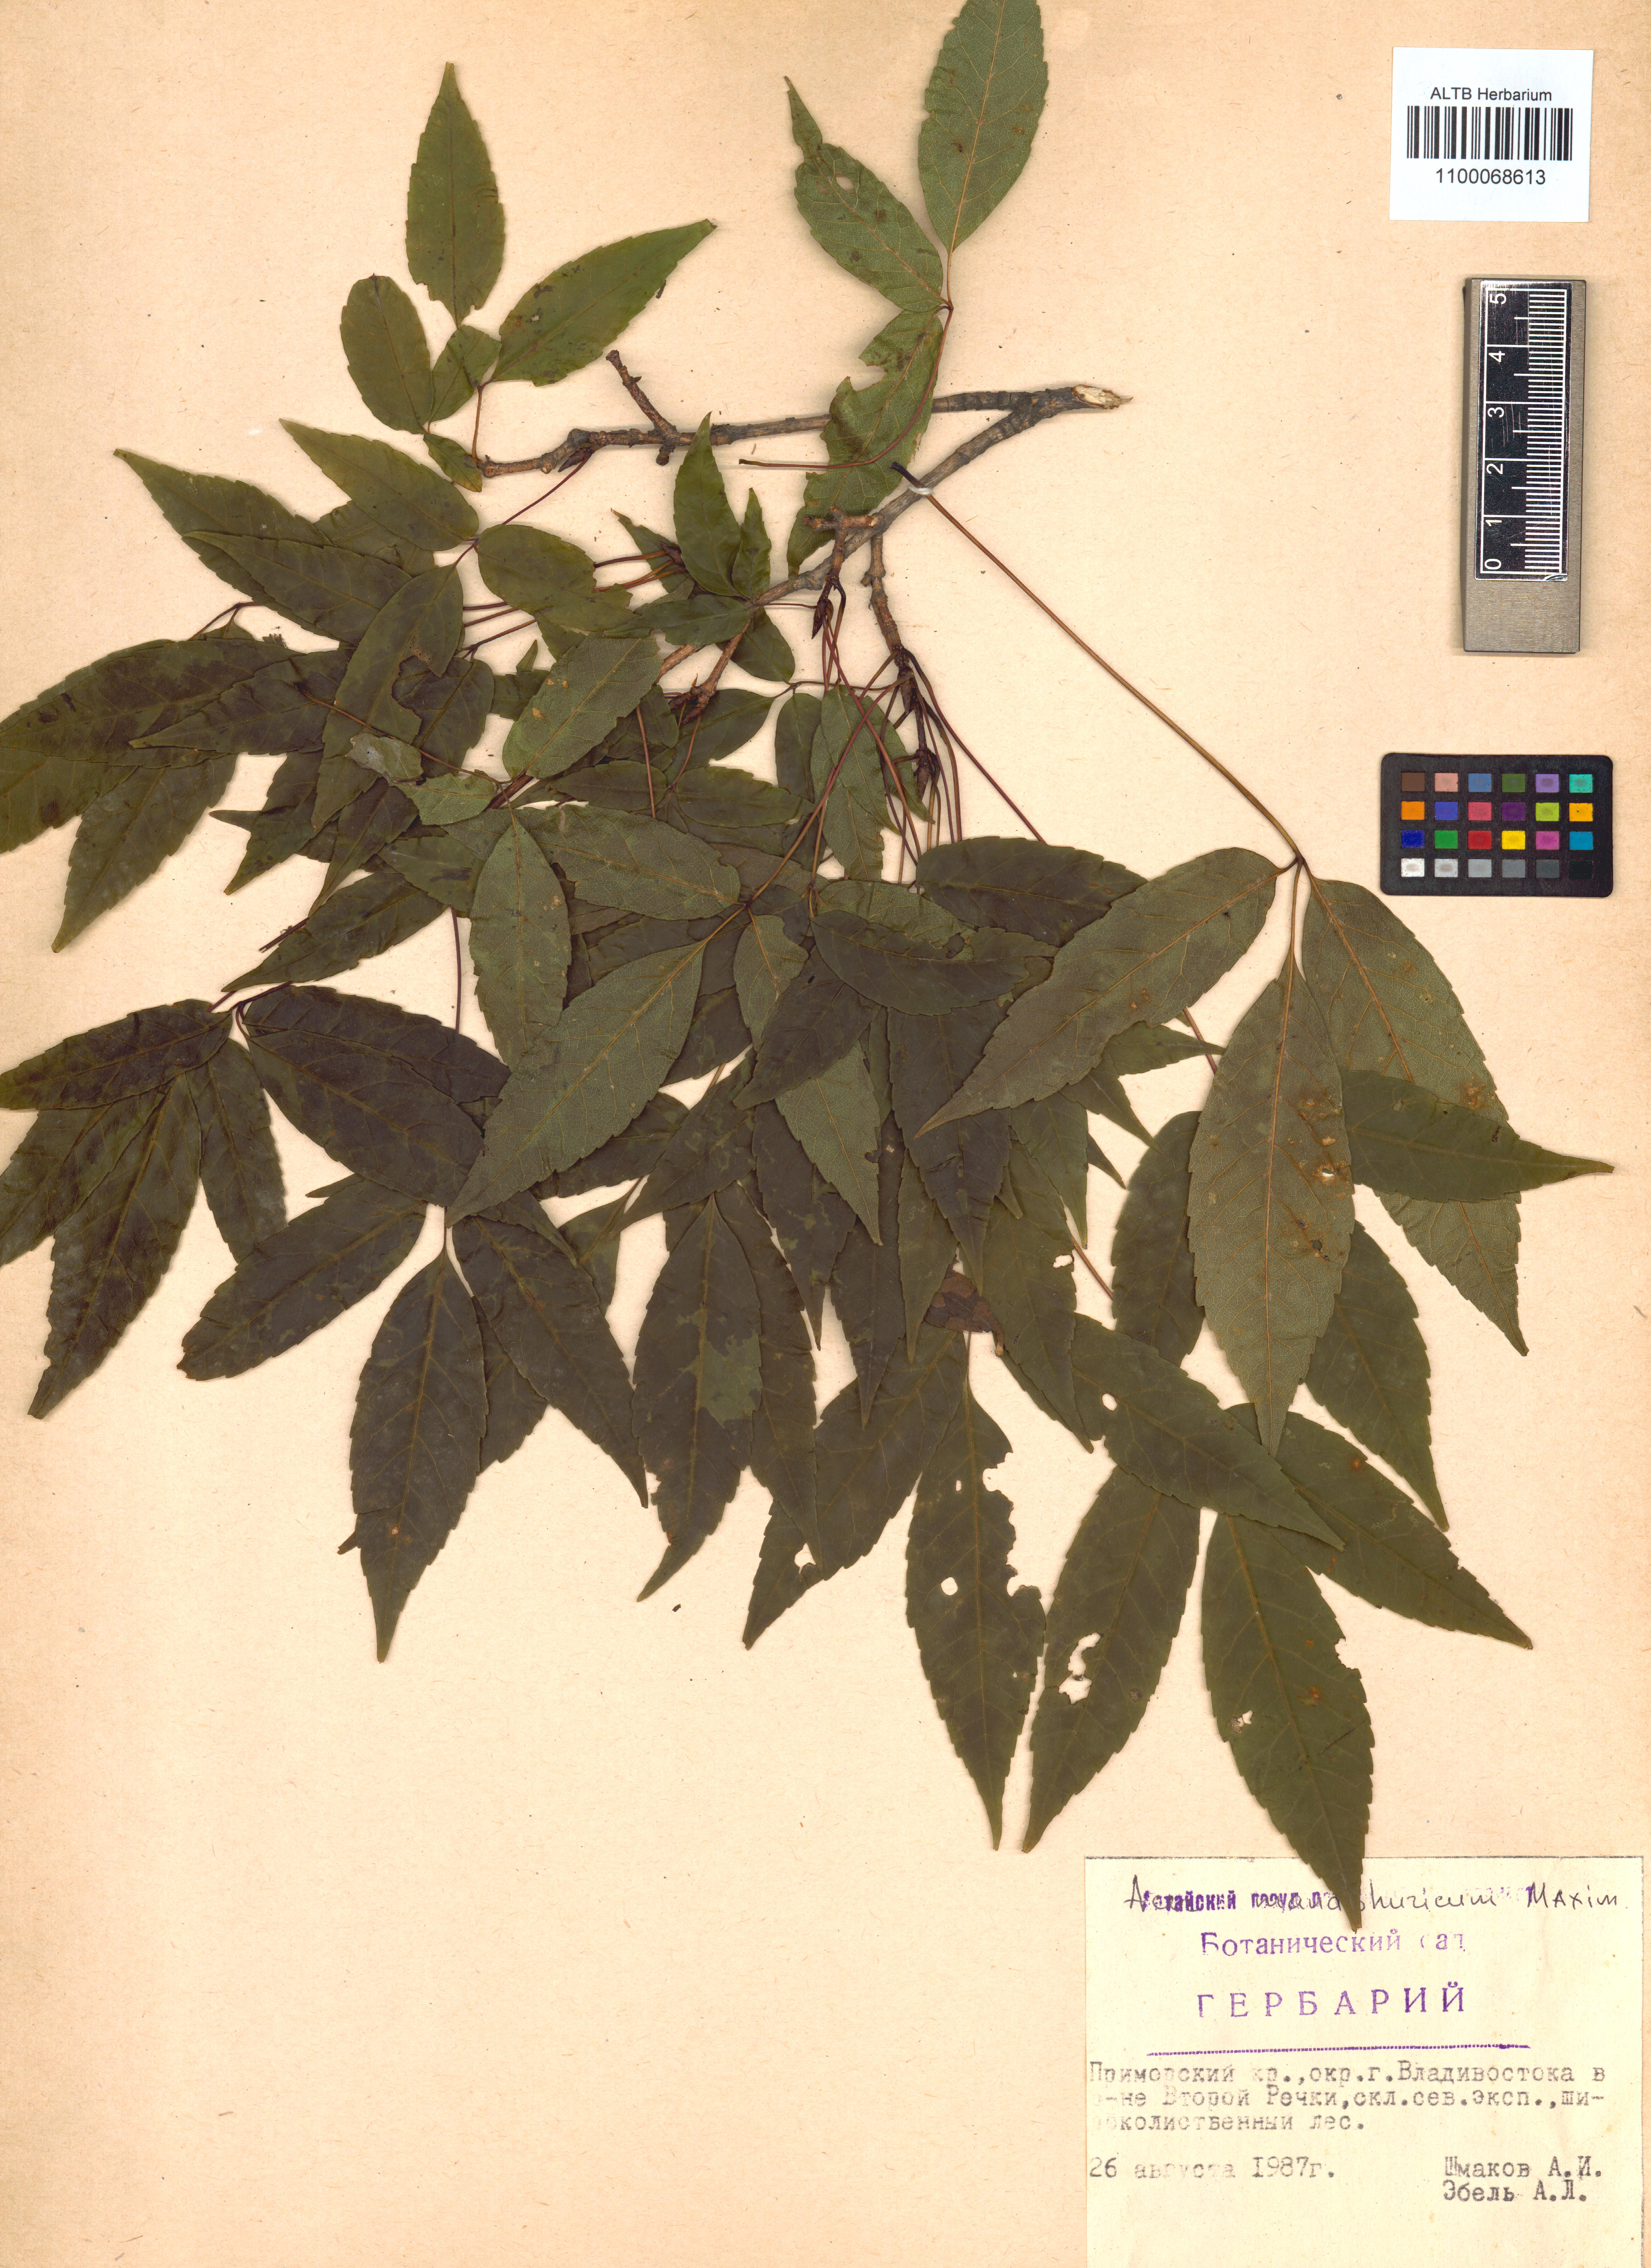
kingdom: Plantae
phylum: Tracheophyta
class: Magnoliopsida
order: Sapindales
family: Sapindaceae
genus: Acer
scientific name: Acer mandshuricum
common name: Manchurian maple
